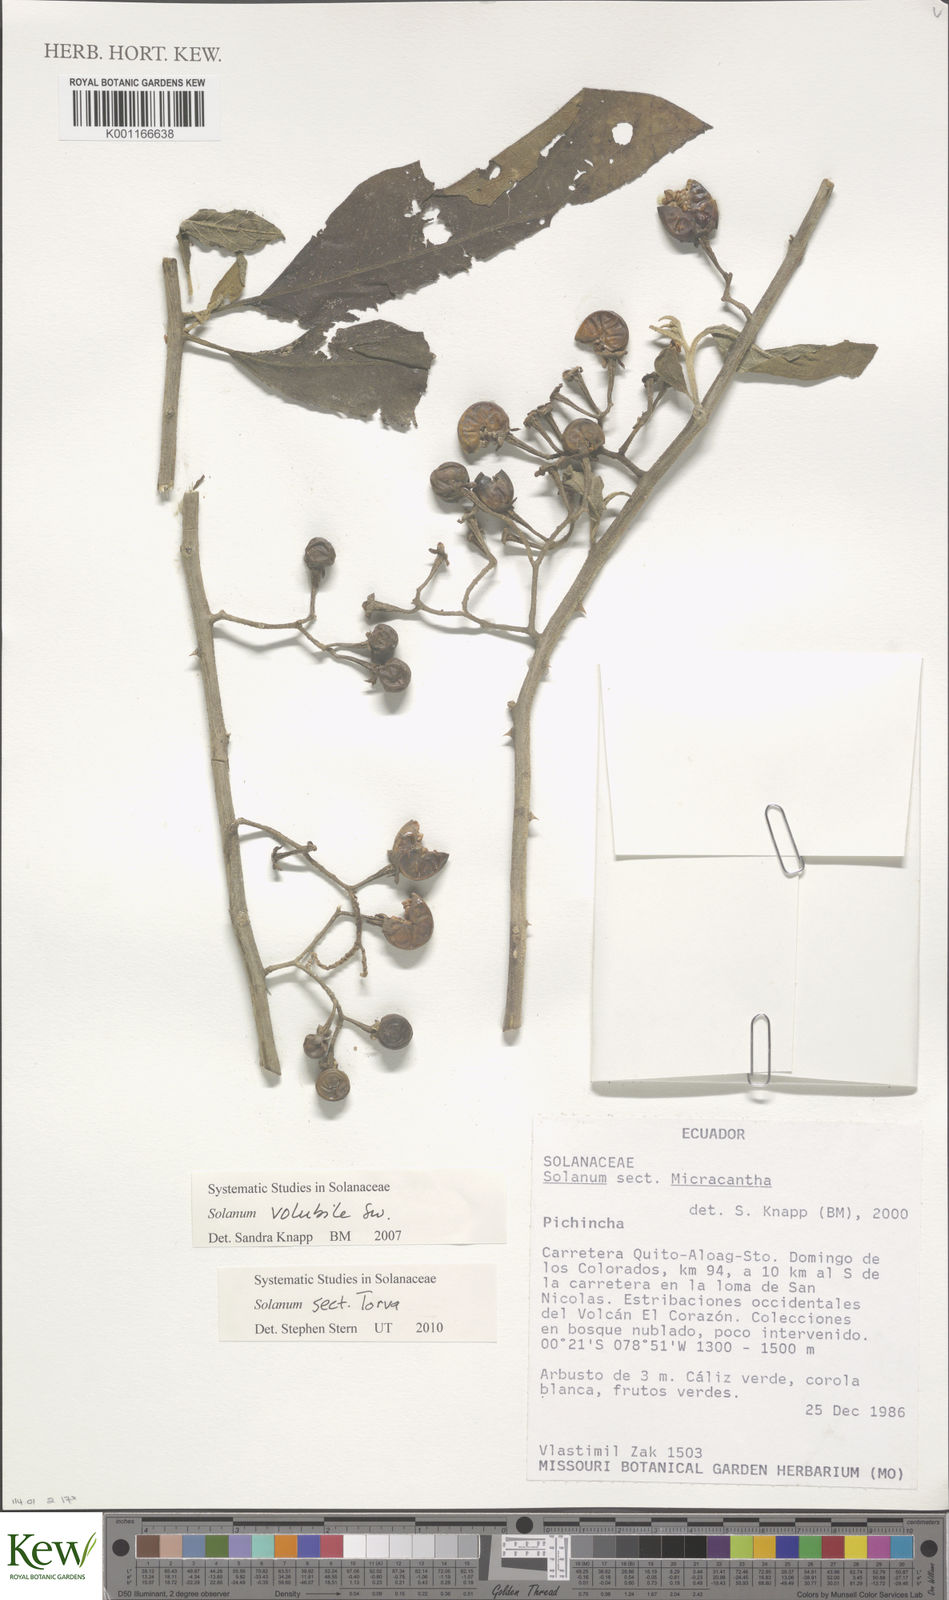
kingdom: Plantae
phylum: Tracheophyta
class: Magnoliopsida
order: Solanales
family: Solanaceae
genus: Solanum
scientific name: Solanum
